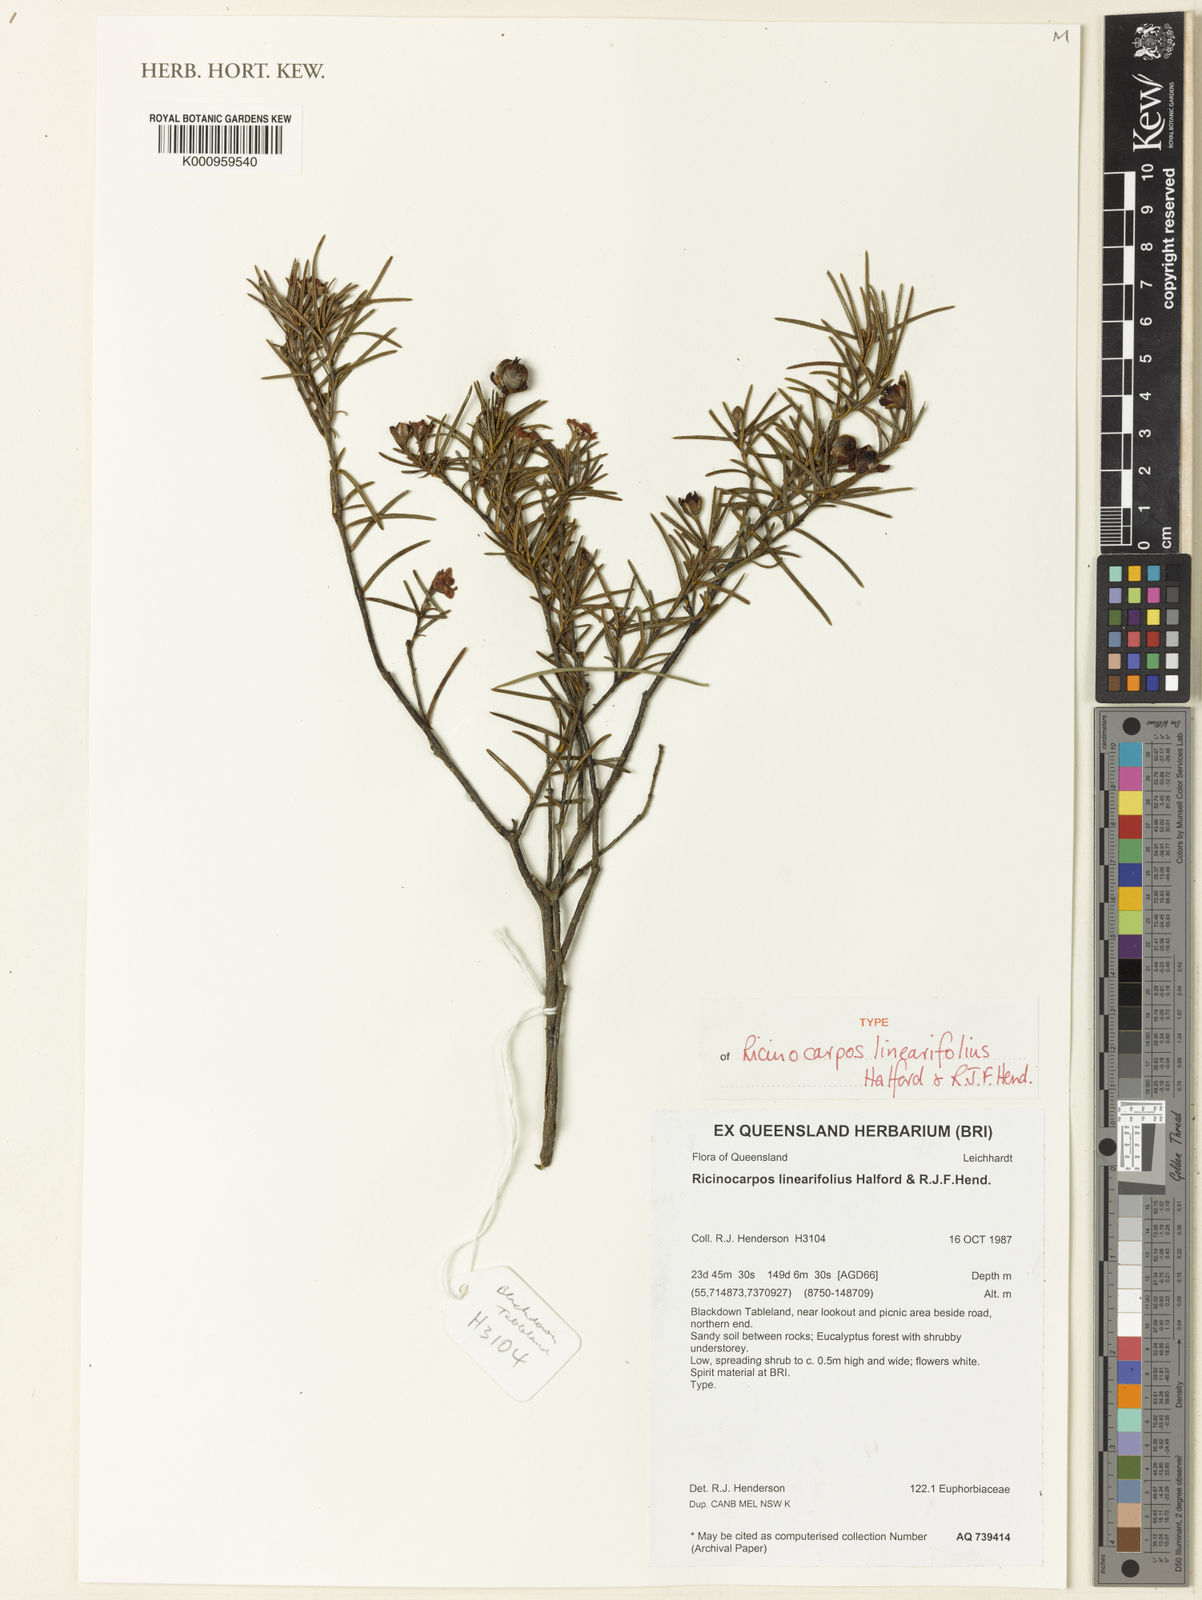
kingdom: Plantae
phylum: Tracheophyta
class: Magnoliopsida
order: Malpighiales
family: Euphorbiaceae
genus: Ricinocarpos
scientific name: Ricinocarpos linearifolius
